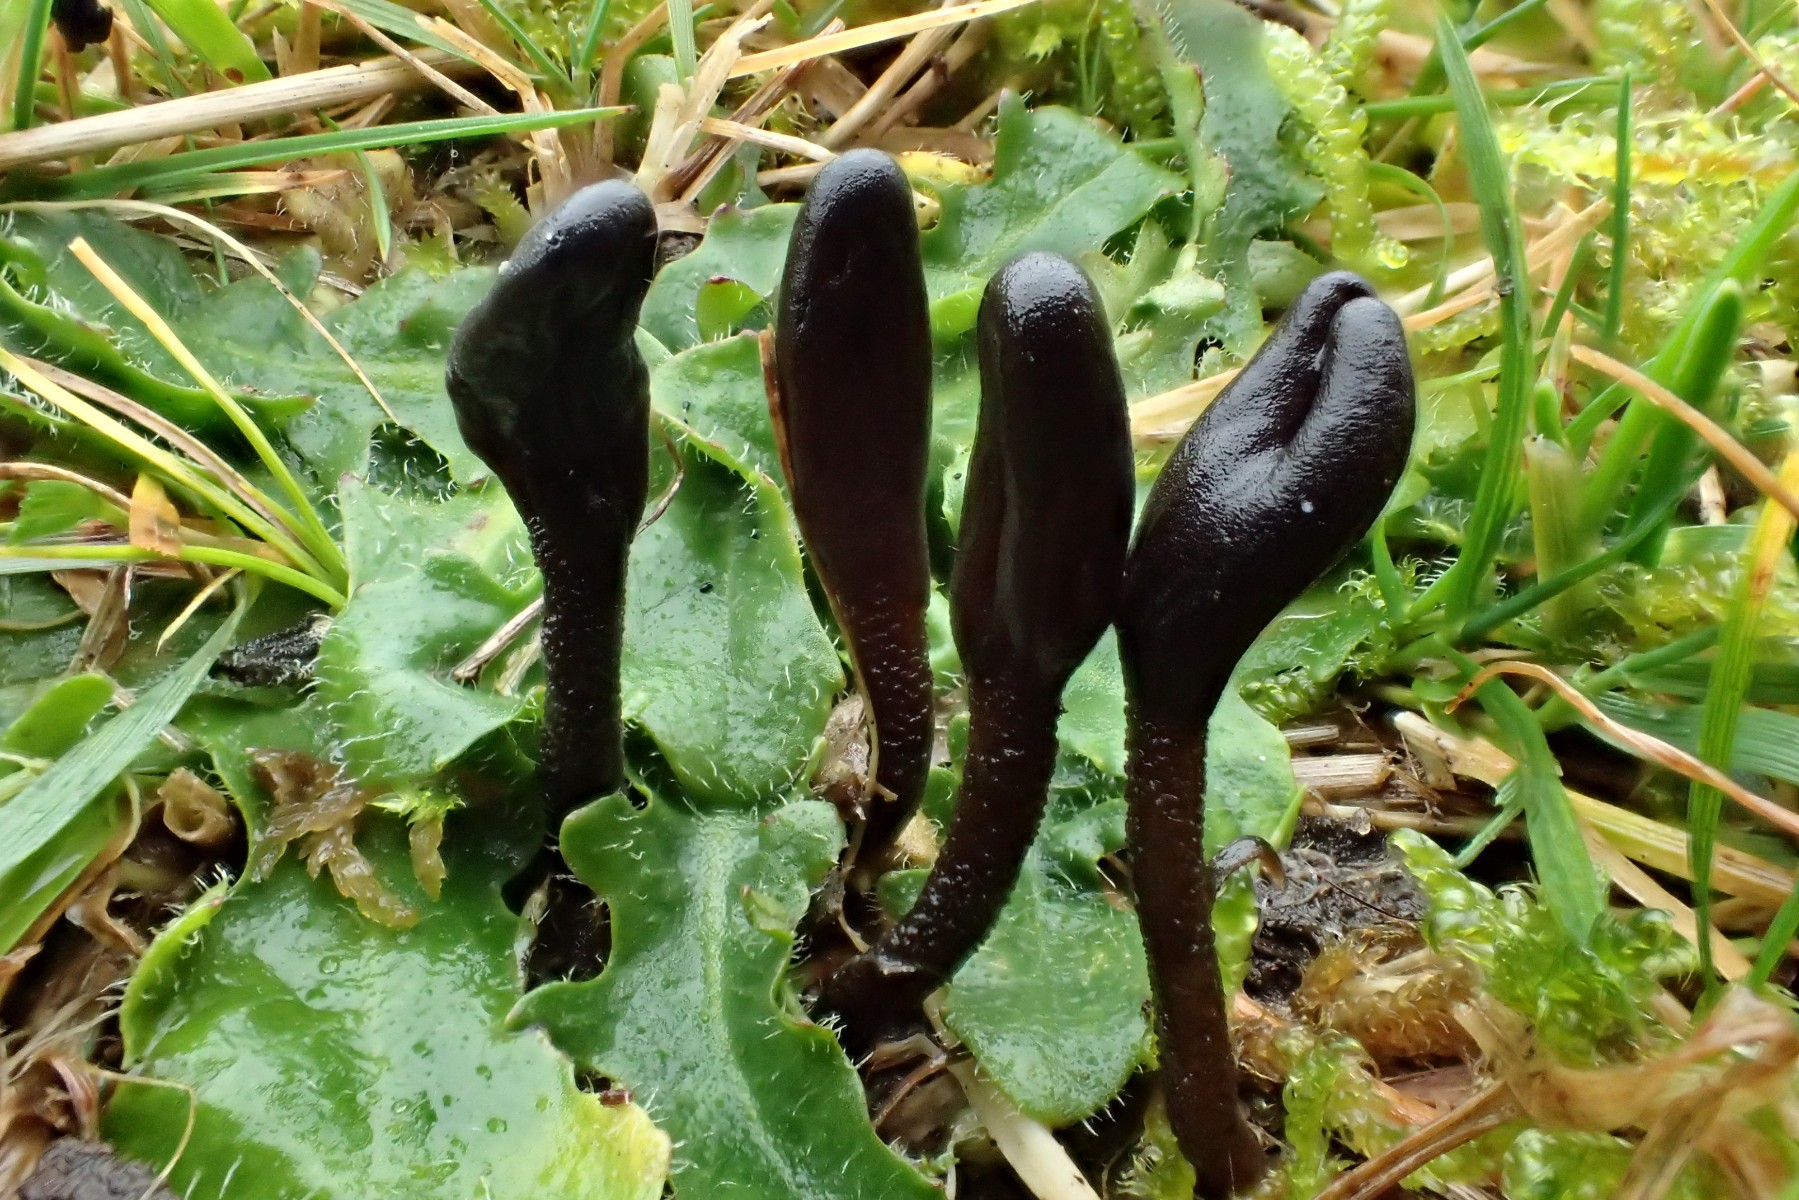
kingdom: Fungi
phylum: Ascomycota
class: Geoglossomycetes
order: Geoglossales
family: Geoglossaceae
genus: Geoglossum
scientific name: Geoglossum fallax
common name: småskællet jordtunge
